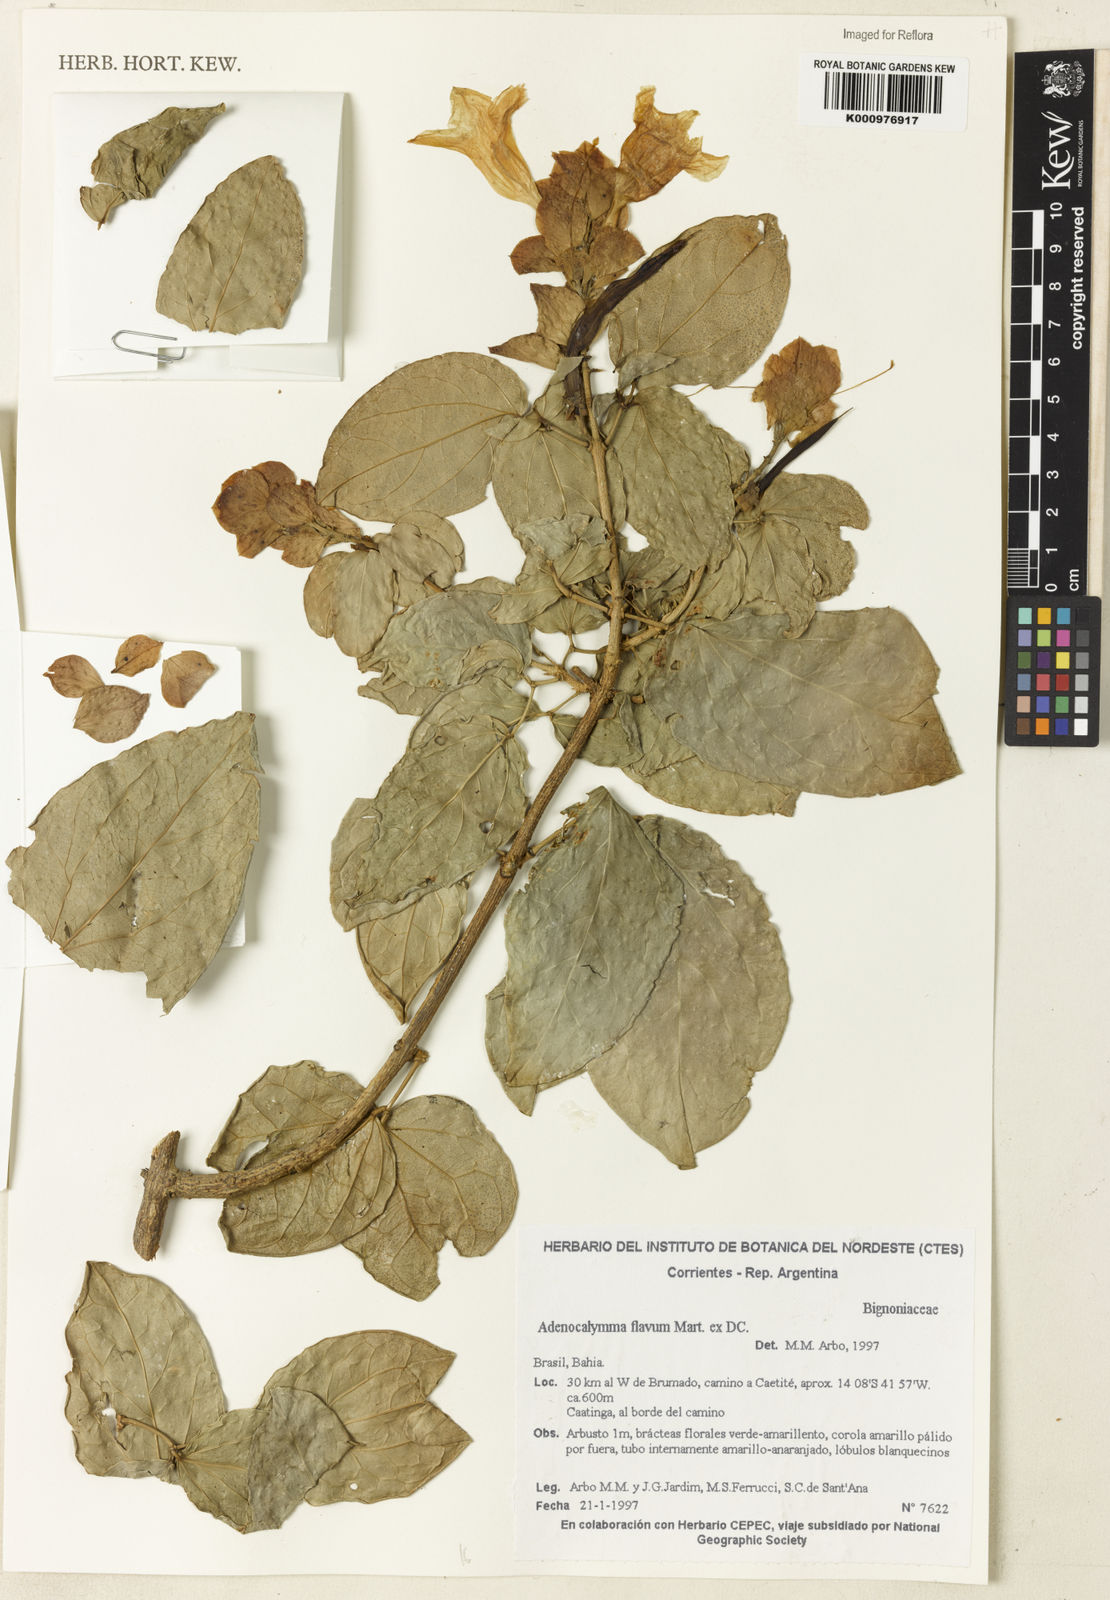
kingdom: Plantae
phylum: Tracheophyta
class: Magnoliopsida
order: Lamiales
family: Bignoniaceae
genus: Adenocalymma
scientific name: Adenocalymma flavum
